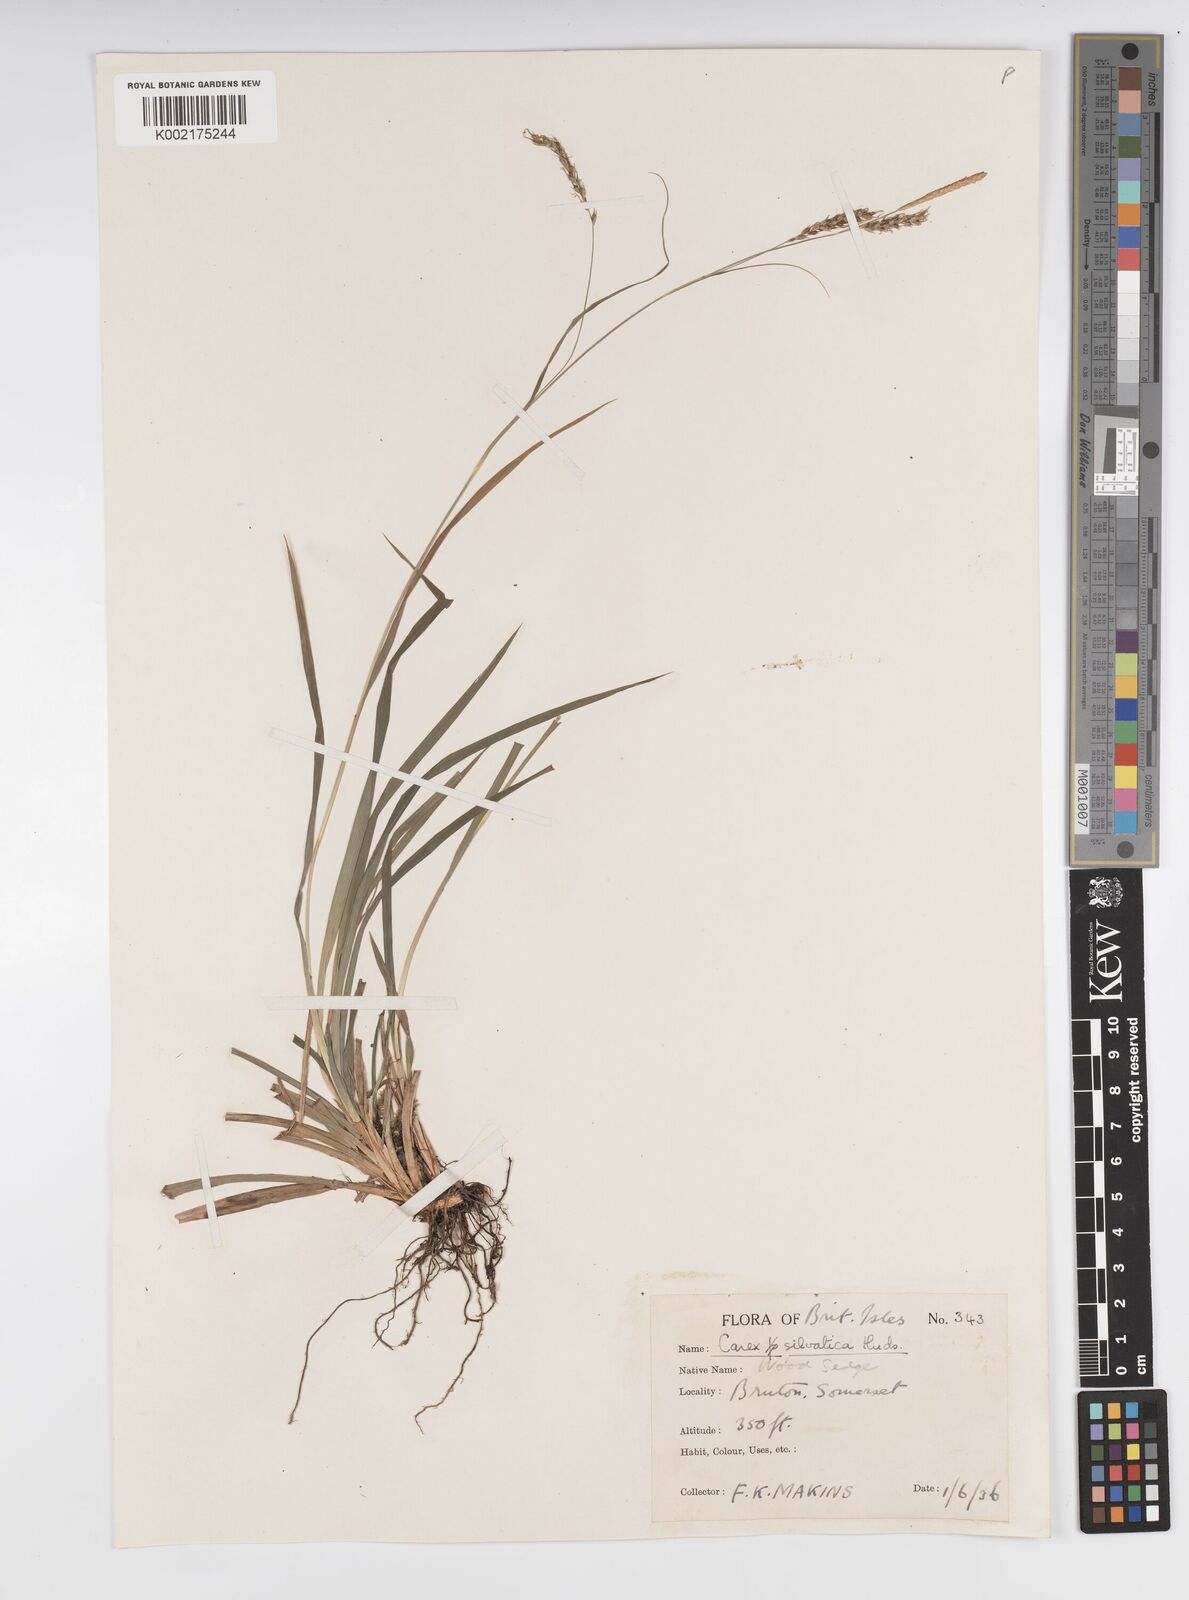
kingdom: Plantae
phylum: Tracheophyta
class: Liliopsida
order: Poales
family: Cyperaceae
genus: Carex
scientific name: Carex sylvatica
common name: Wood-sedge
